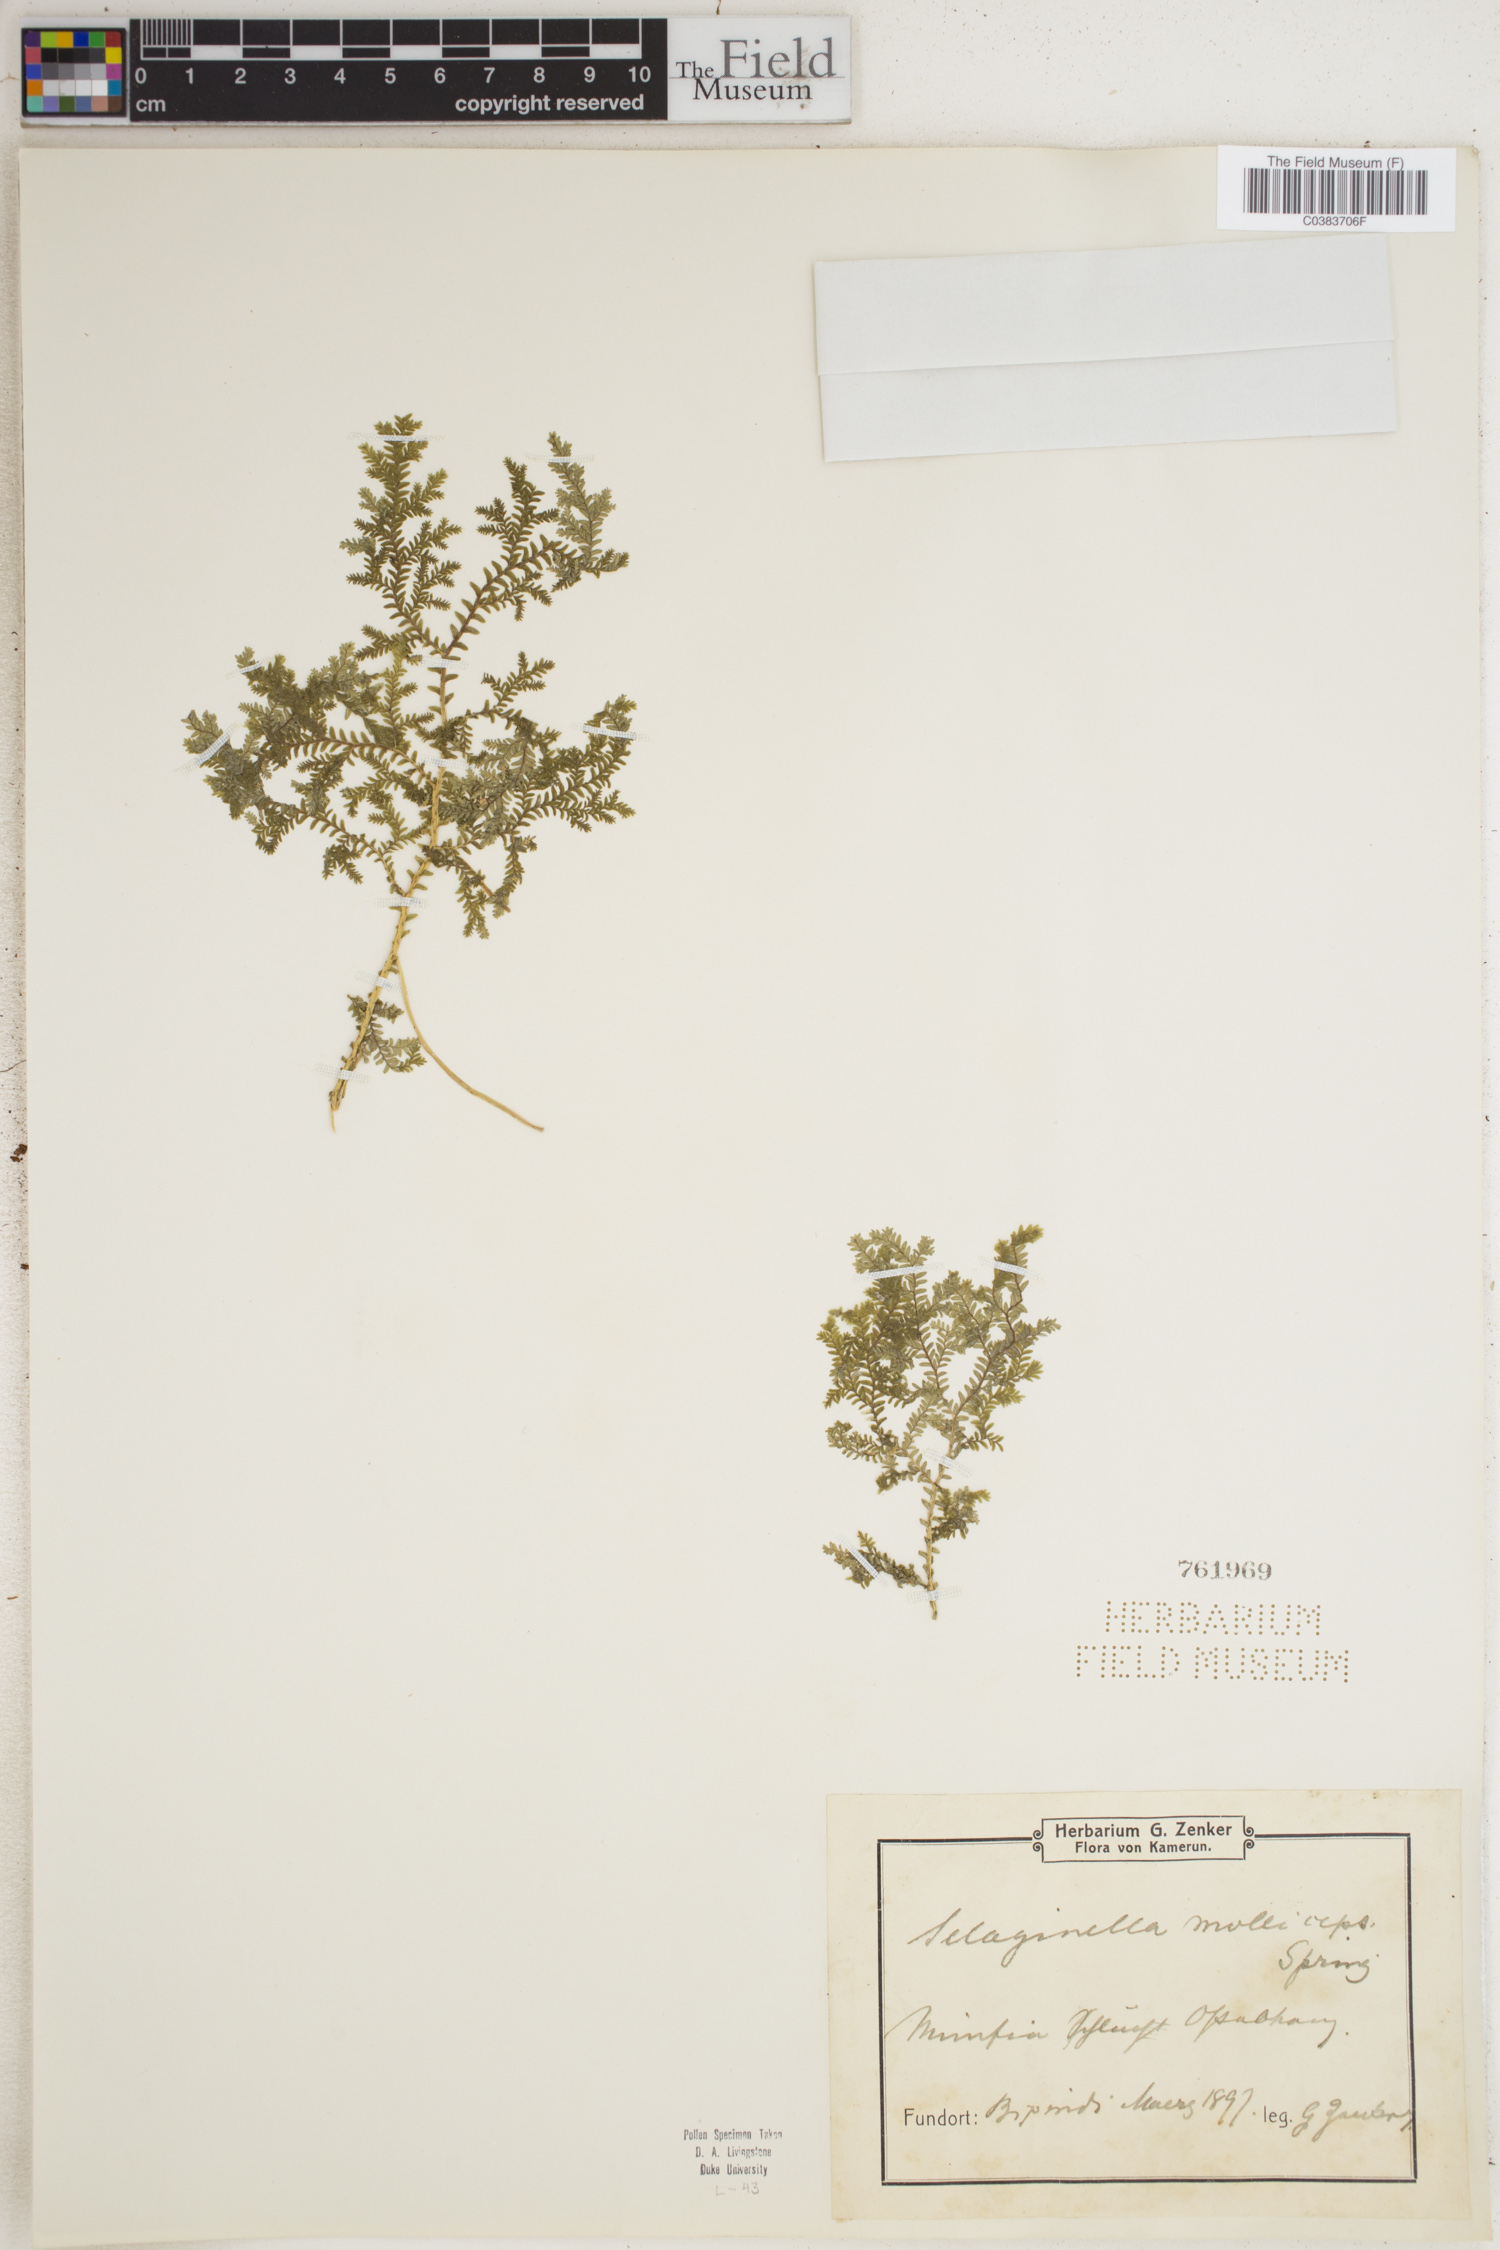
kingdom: Plantae
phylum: Tracheophyta
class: Lycopodiopsida
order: Selaginellales
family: Selaginellaceae
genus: Selaginella
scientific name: Selaginella molliceps
